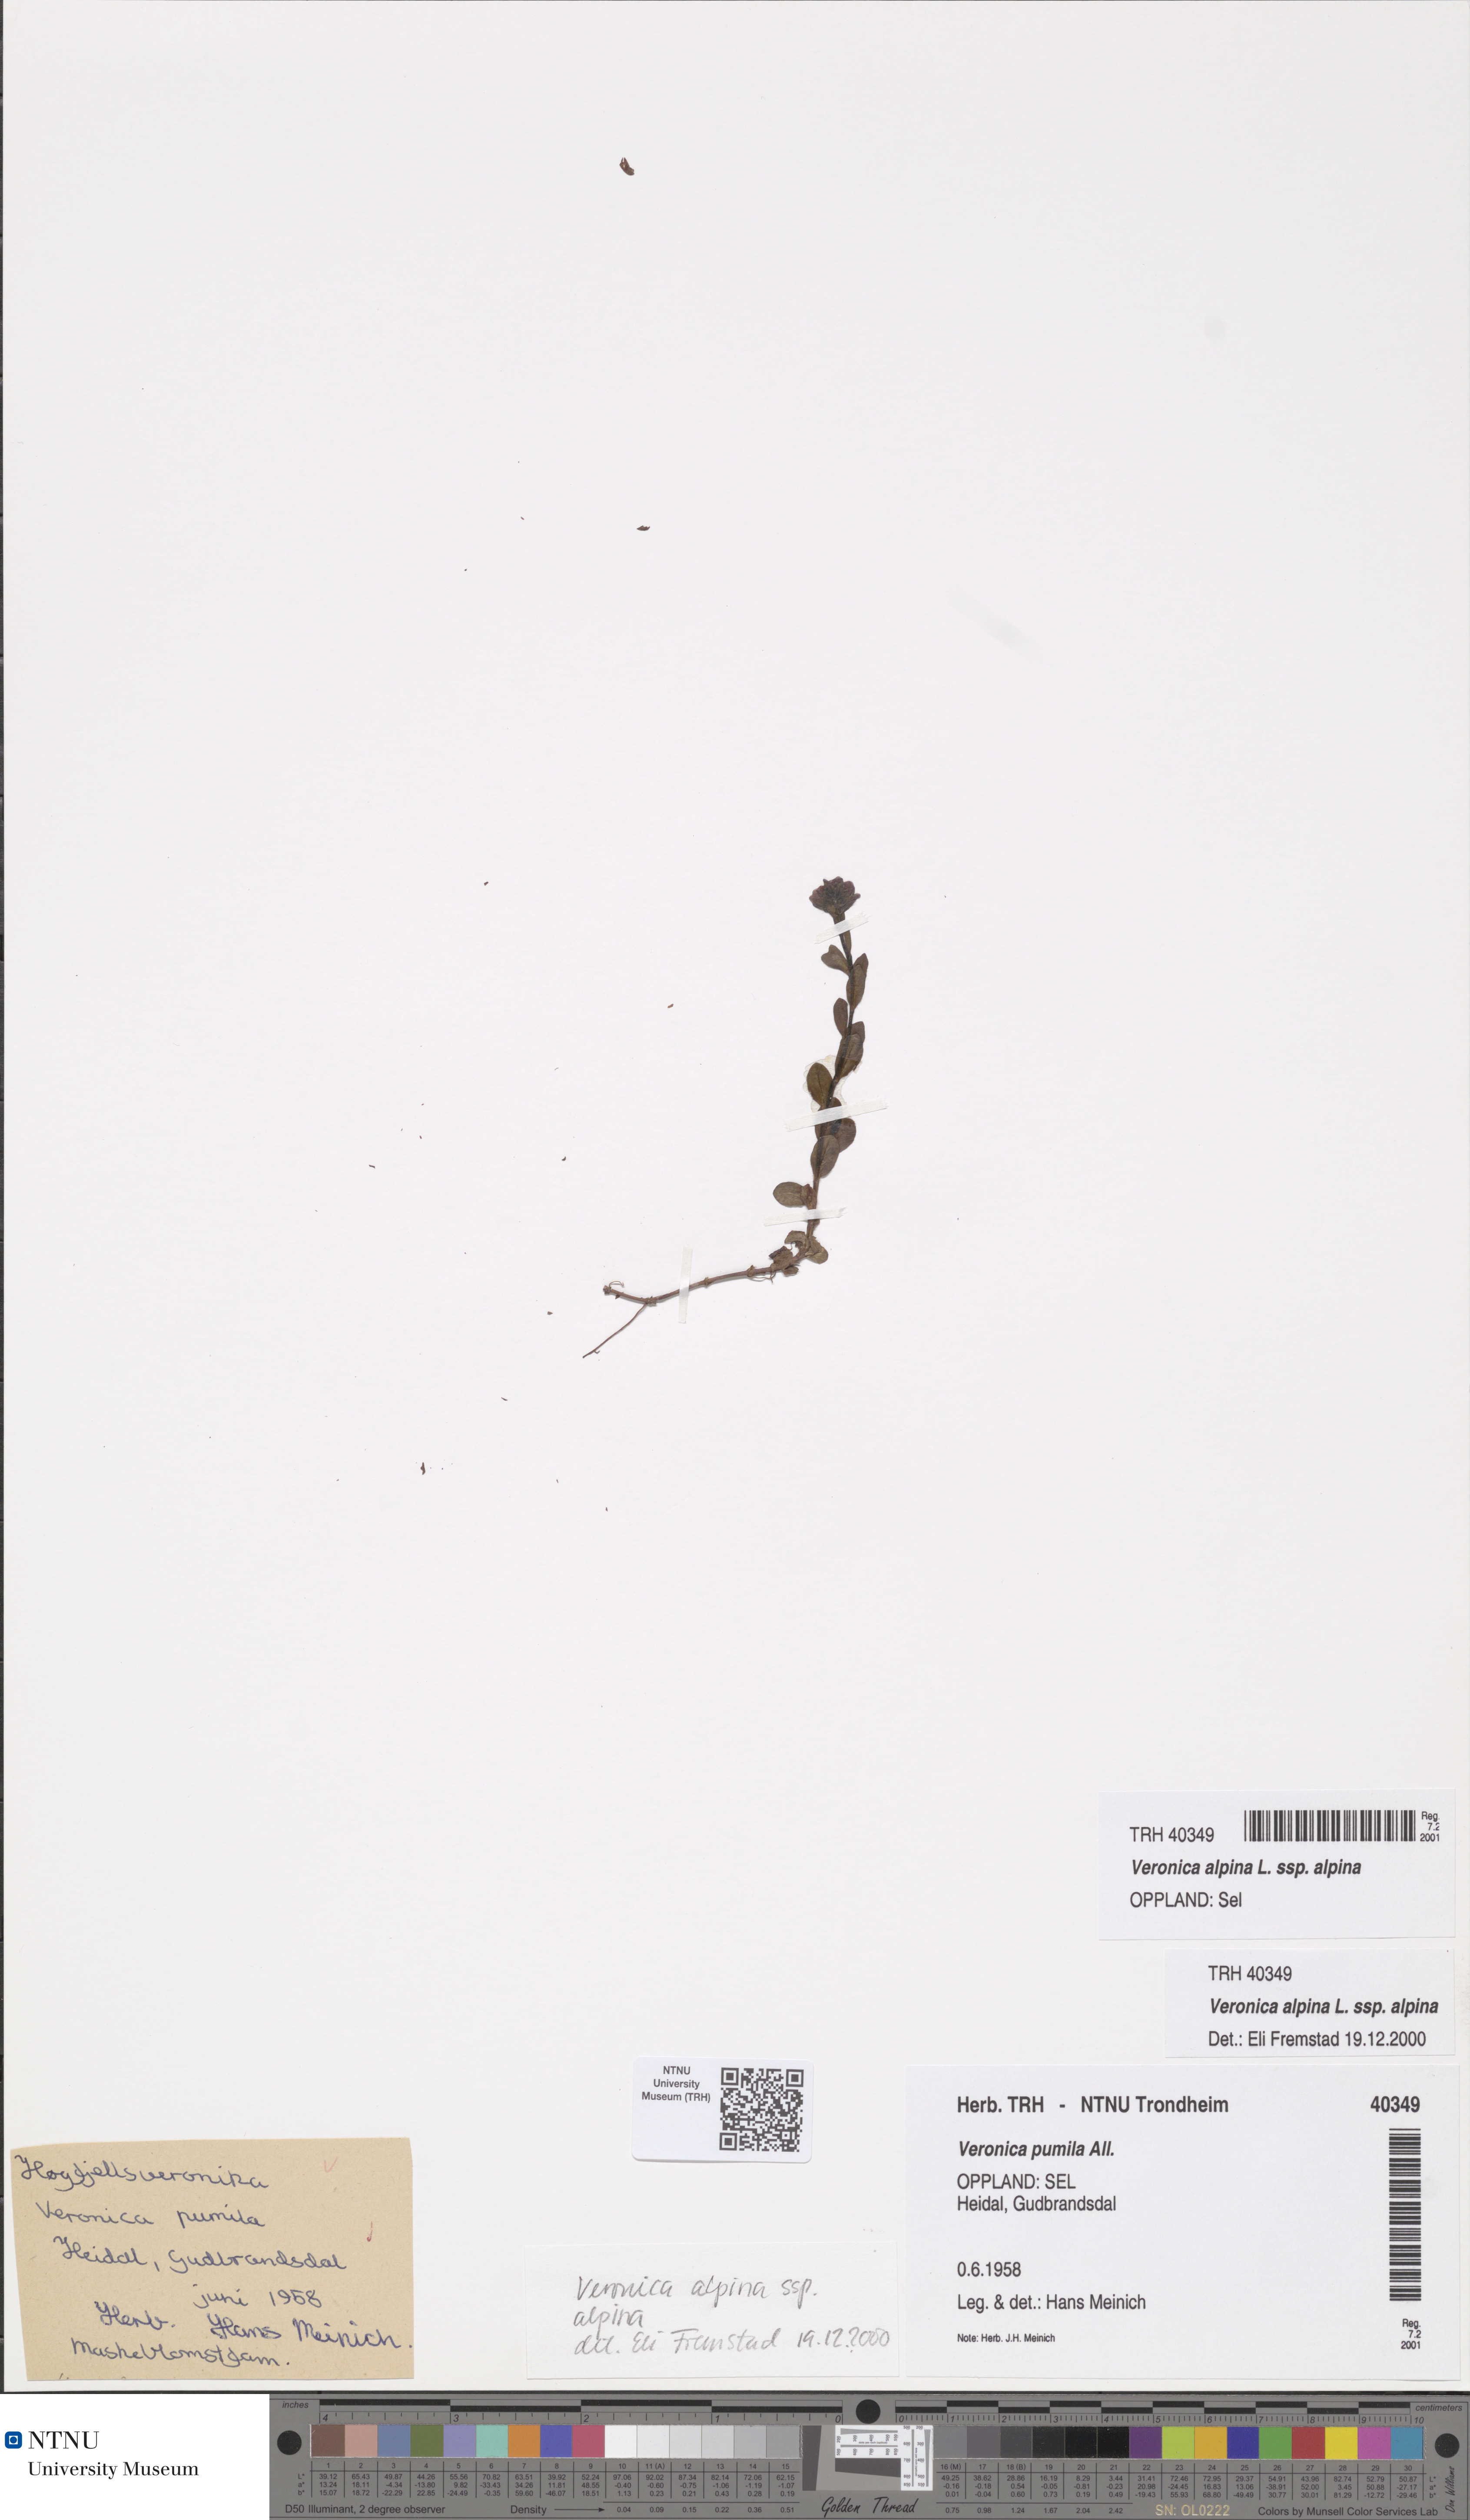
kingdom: Plantae
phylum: Tracheophyta
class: Magnoliopsida
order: Lamiales
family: Plantaginaceae
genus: Veronica
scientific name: Veronica alpina
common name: Alpine speedwell
